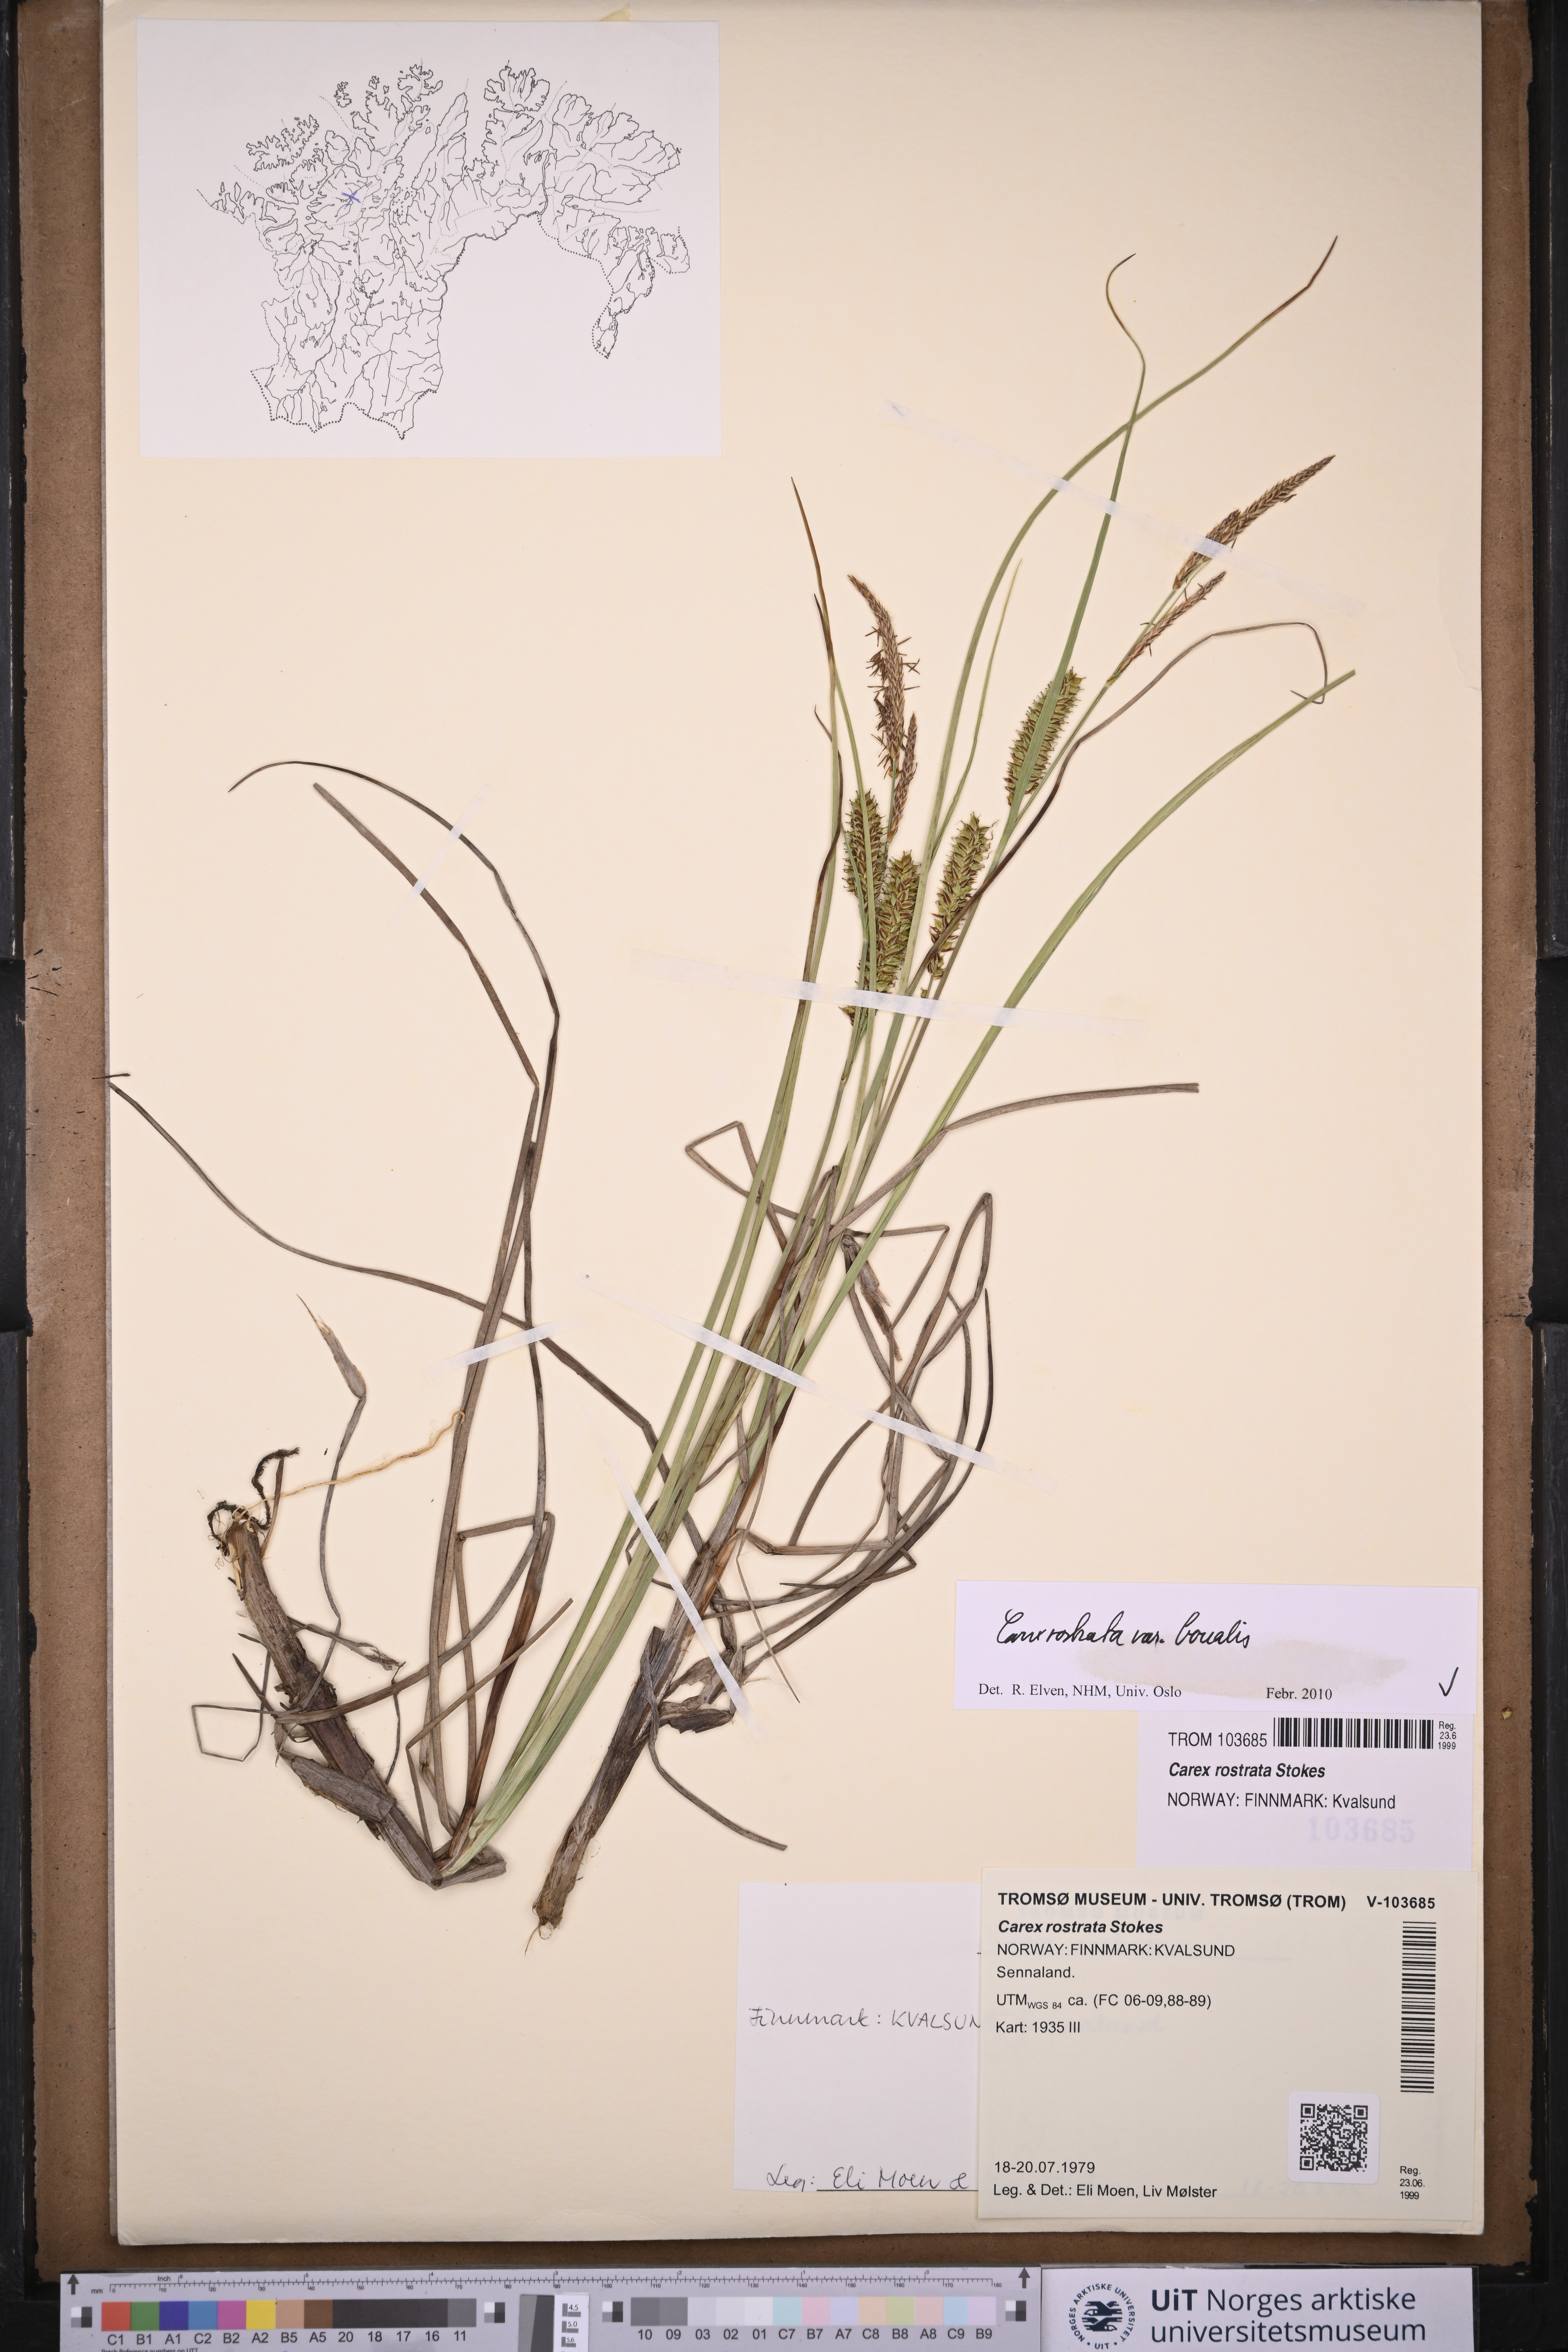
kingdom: Plantae
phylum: Tracheophyta
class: Liliopsida
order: Poales
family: Cyperaceae
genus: Carex
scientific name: Carex saamica
